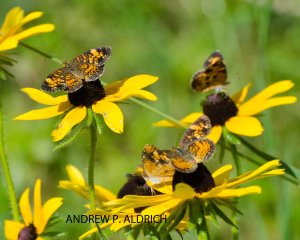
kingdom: Animalia
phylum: Arthropoda
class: Insecta
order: Lepidoptera
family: Nymphalidae
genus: Phyciodes
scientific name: Phyciodes
